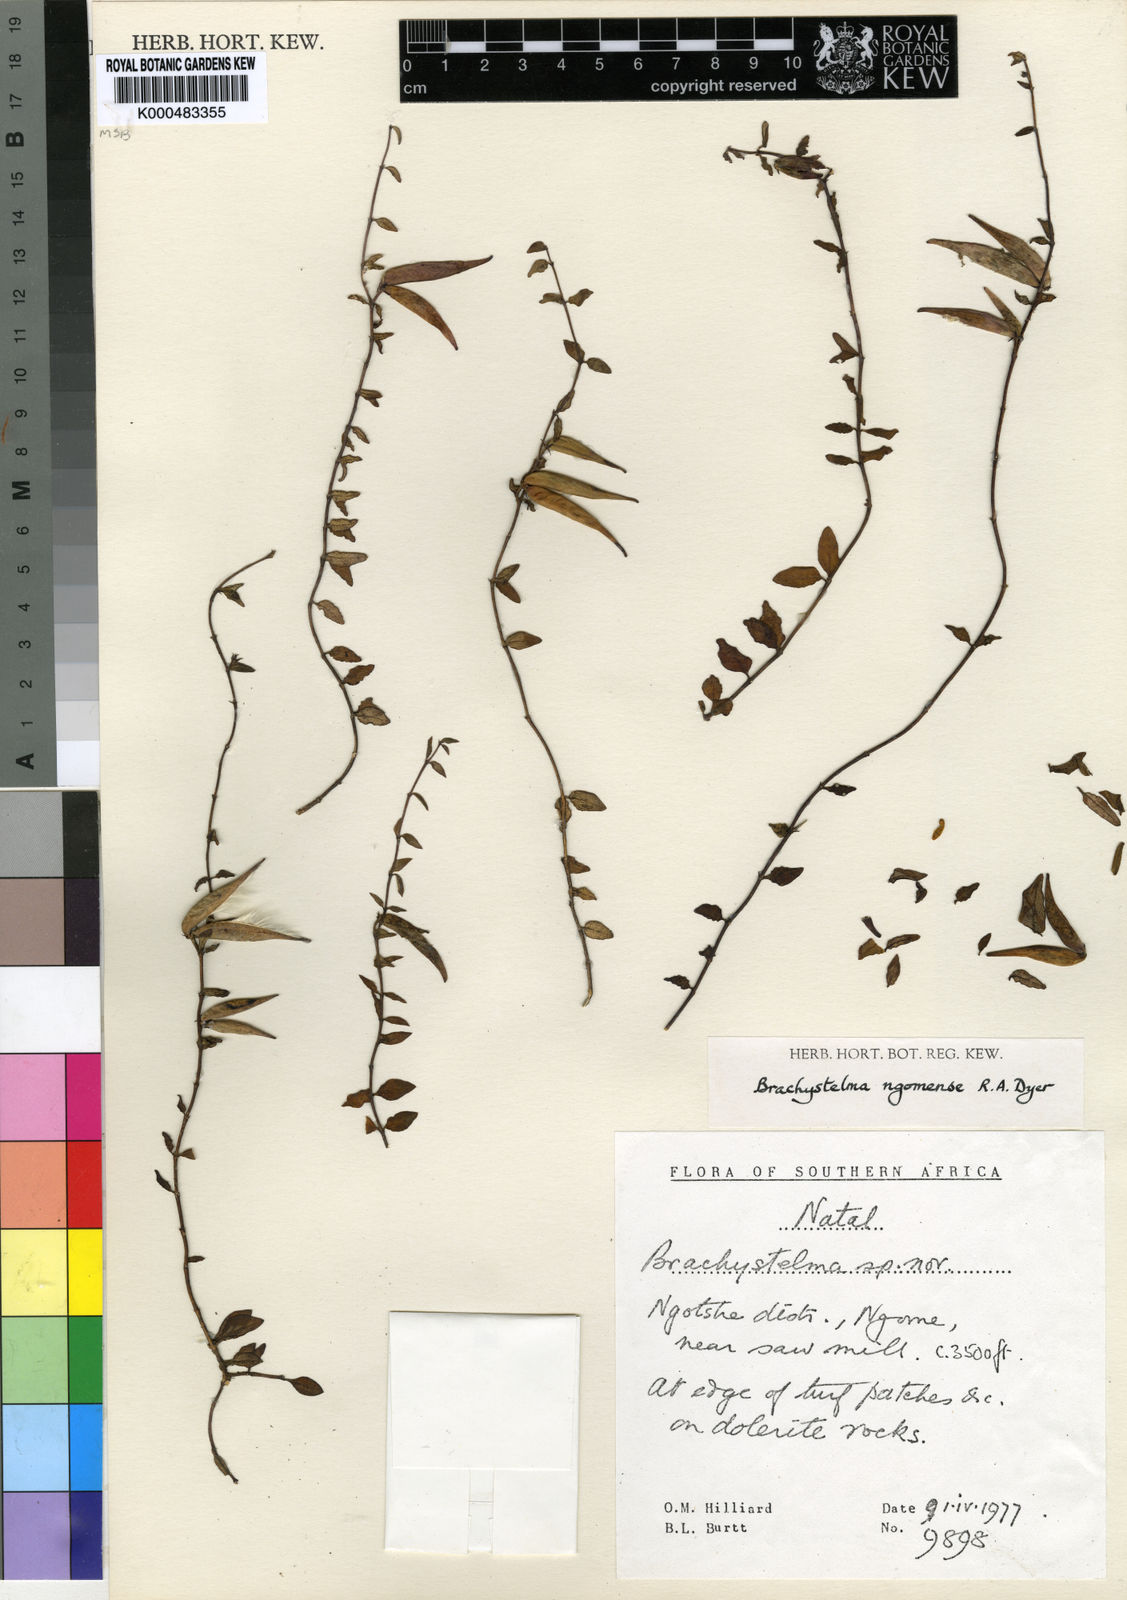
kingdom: Plantae
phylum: Tracheophyta
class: Magnoliopsida
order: Gentianales
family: Apocynaceae
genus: Ceropegia
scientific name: Ceropegia ngomensis
